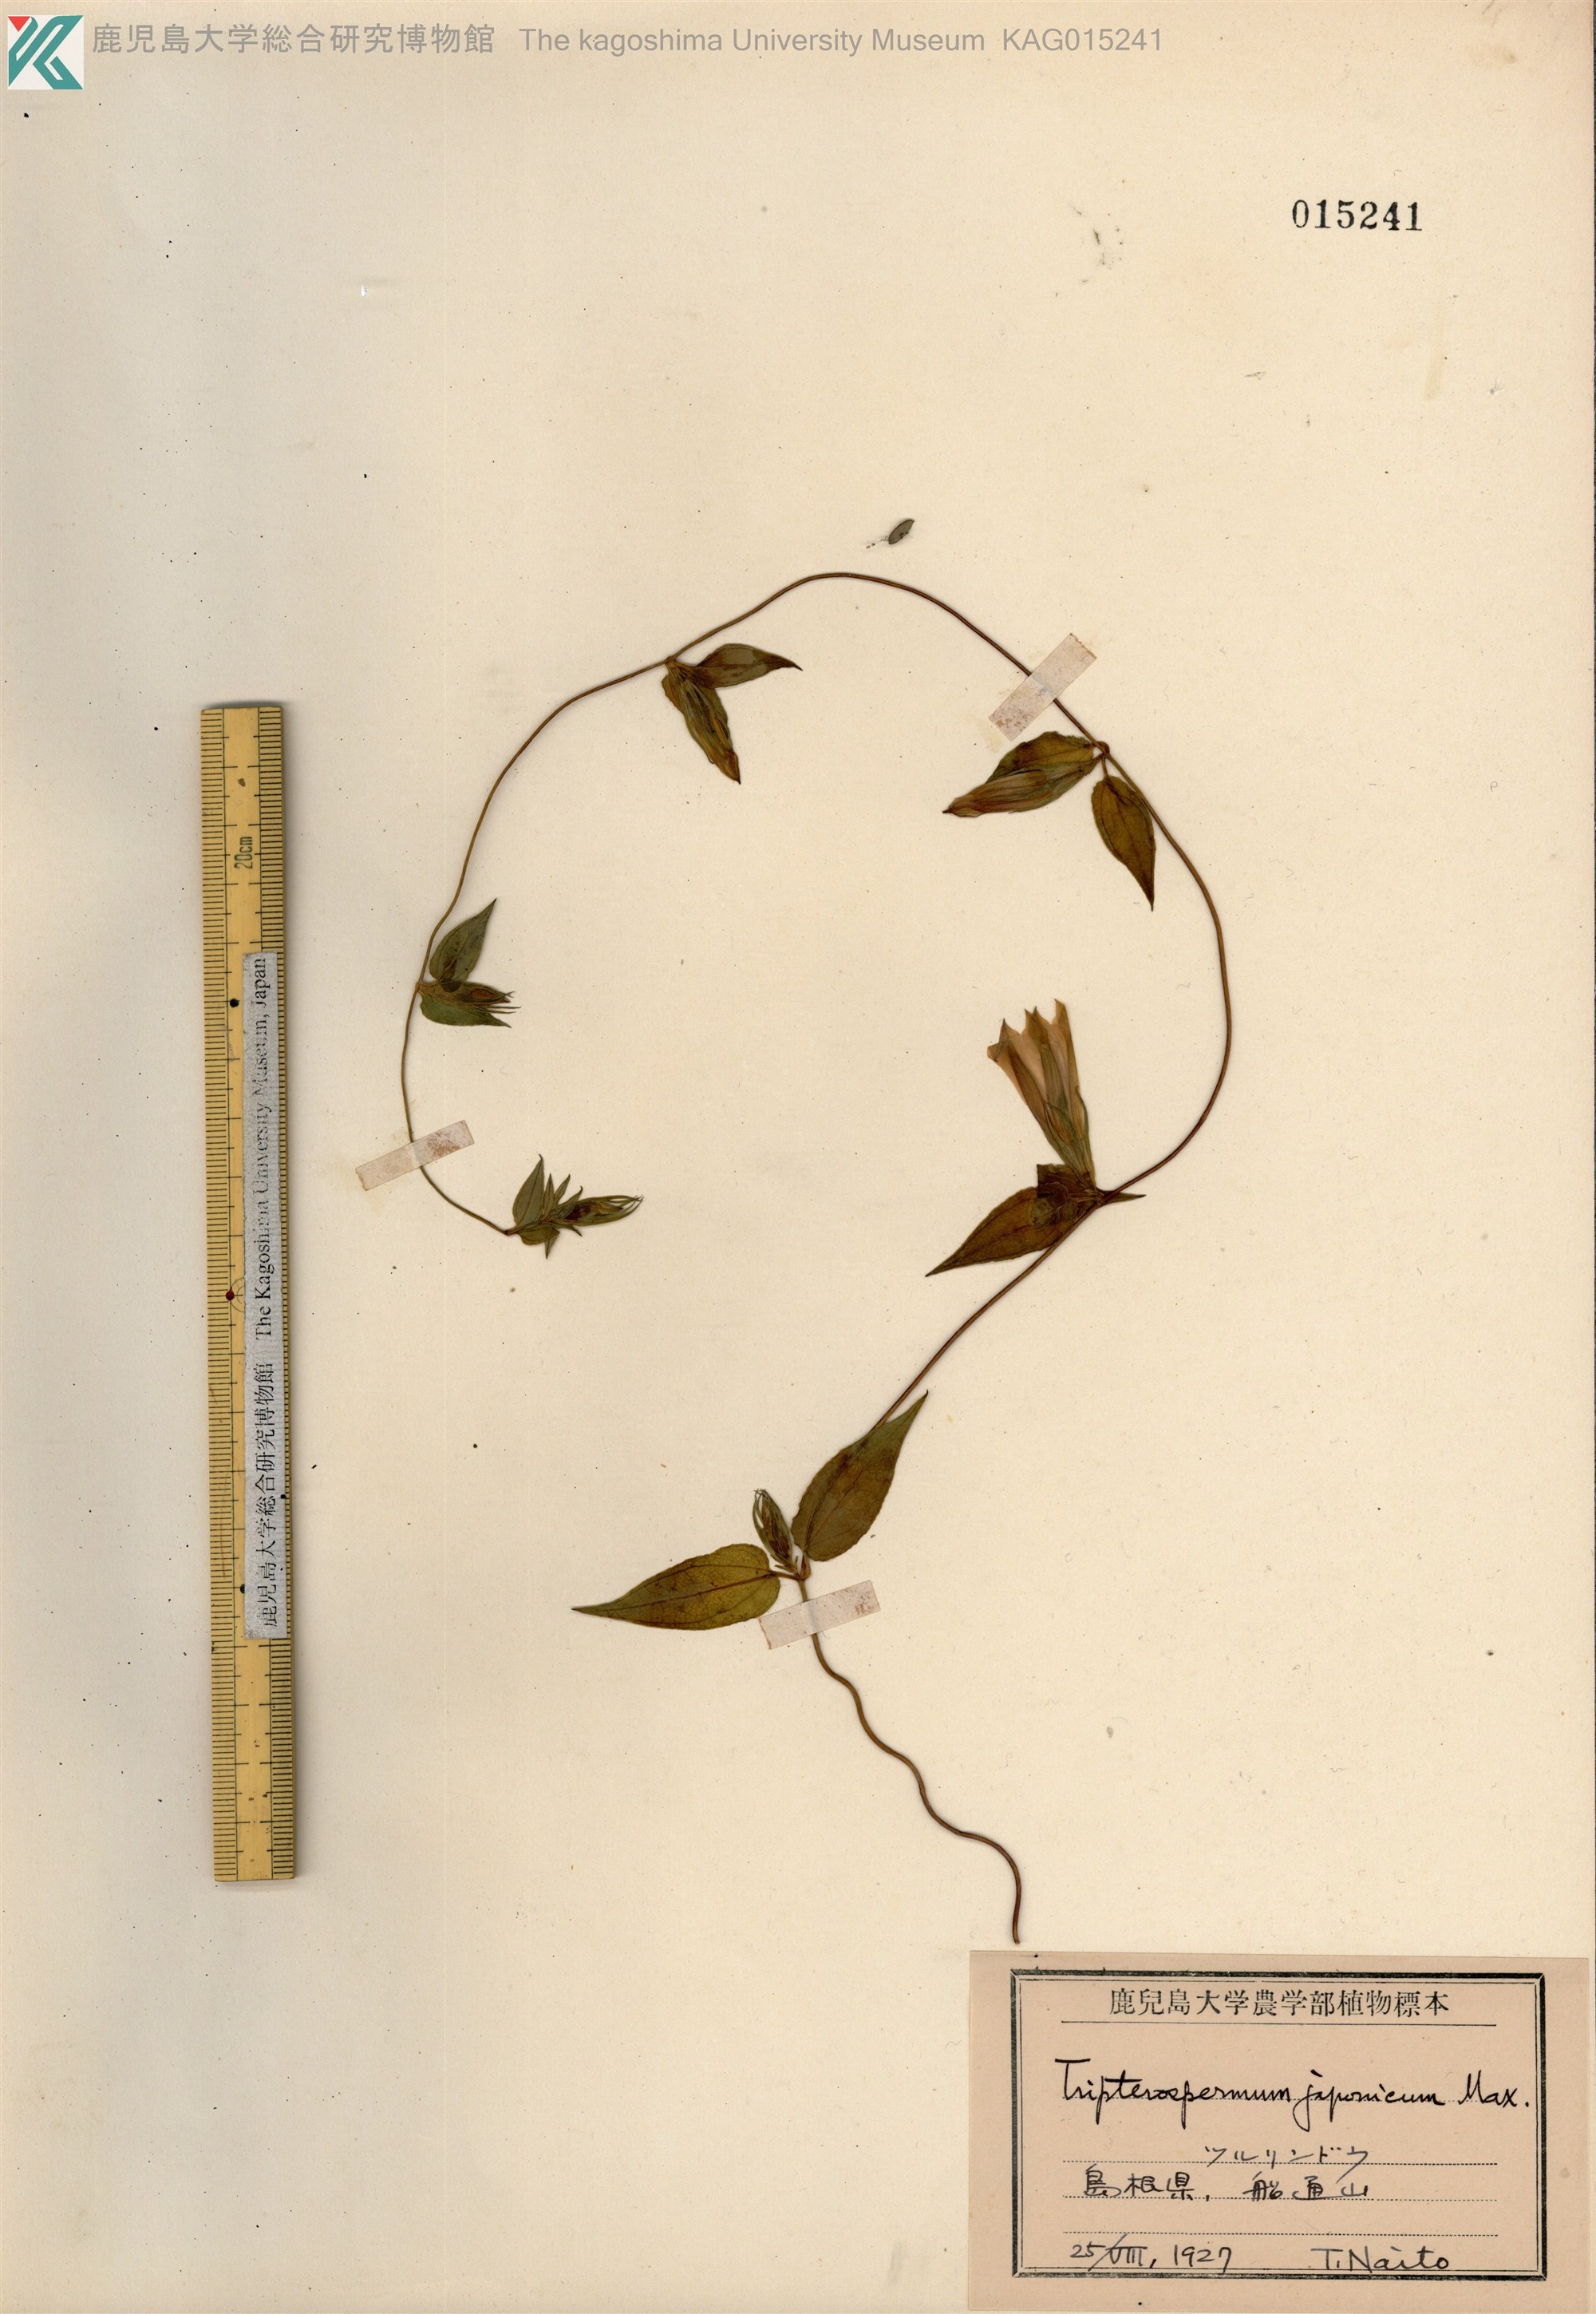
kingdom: Plantae
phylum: Tracheophyta
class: Magnoliopsida
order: Gentianales
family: Gentianaceae
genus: Tripterospermum
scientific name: Tripterospermum trinervium
